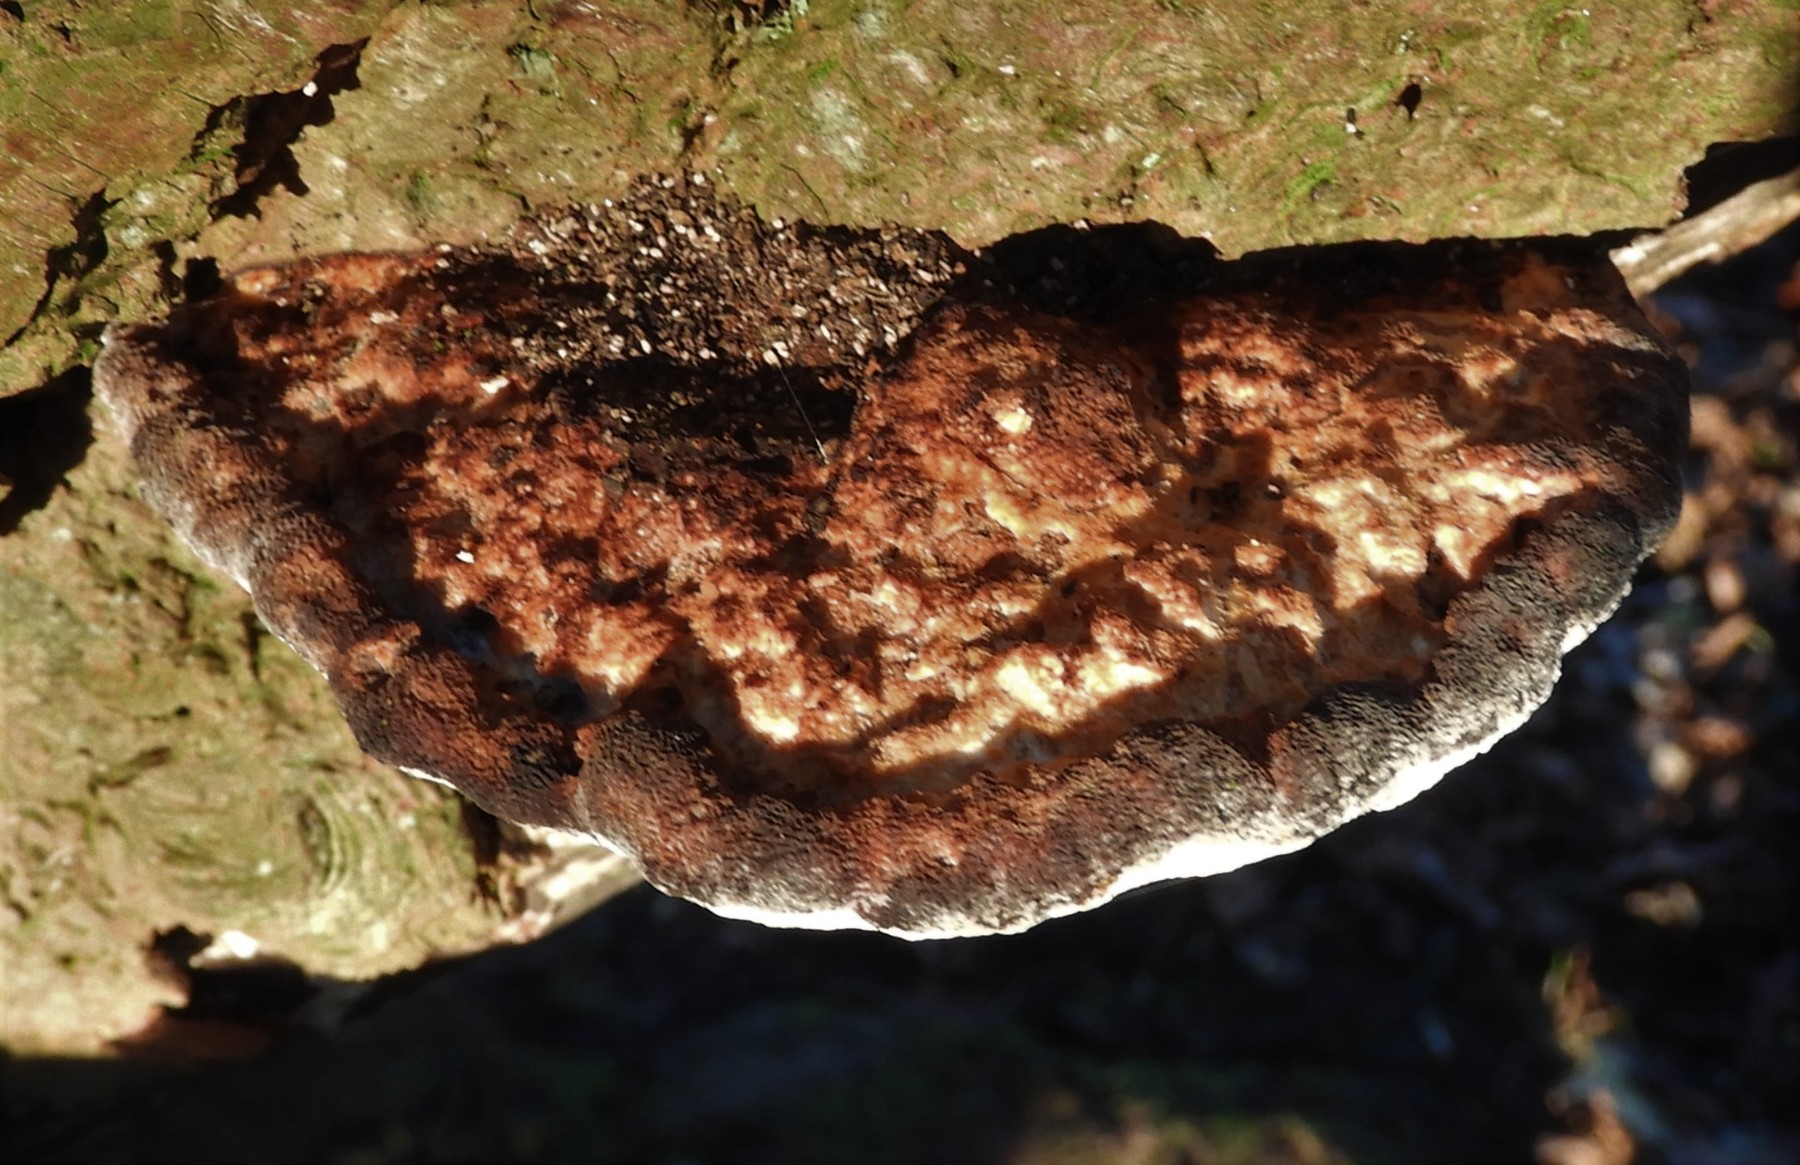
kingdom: Fungi
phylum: Basidiomycota
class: Agaricomycetes
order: Polyporales
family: Polyporaceae
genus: Daedaleopsis
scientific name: Daedaleopsis confragosa
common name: rødmende læderporesvamp
